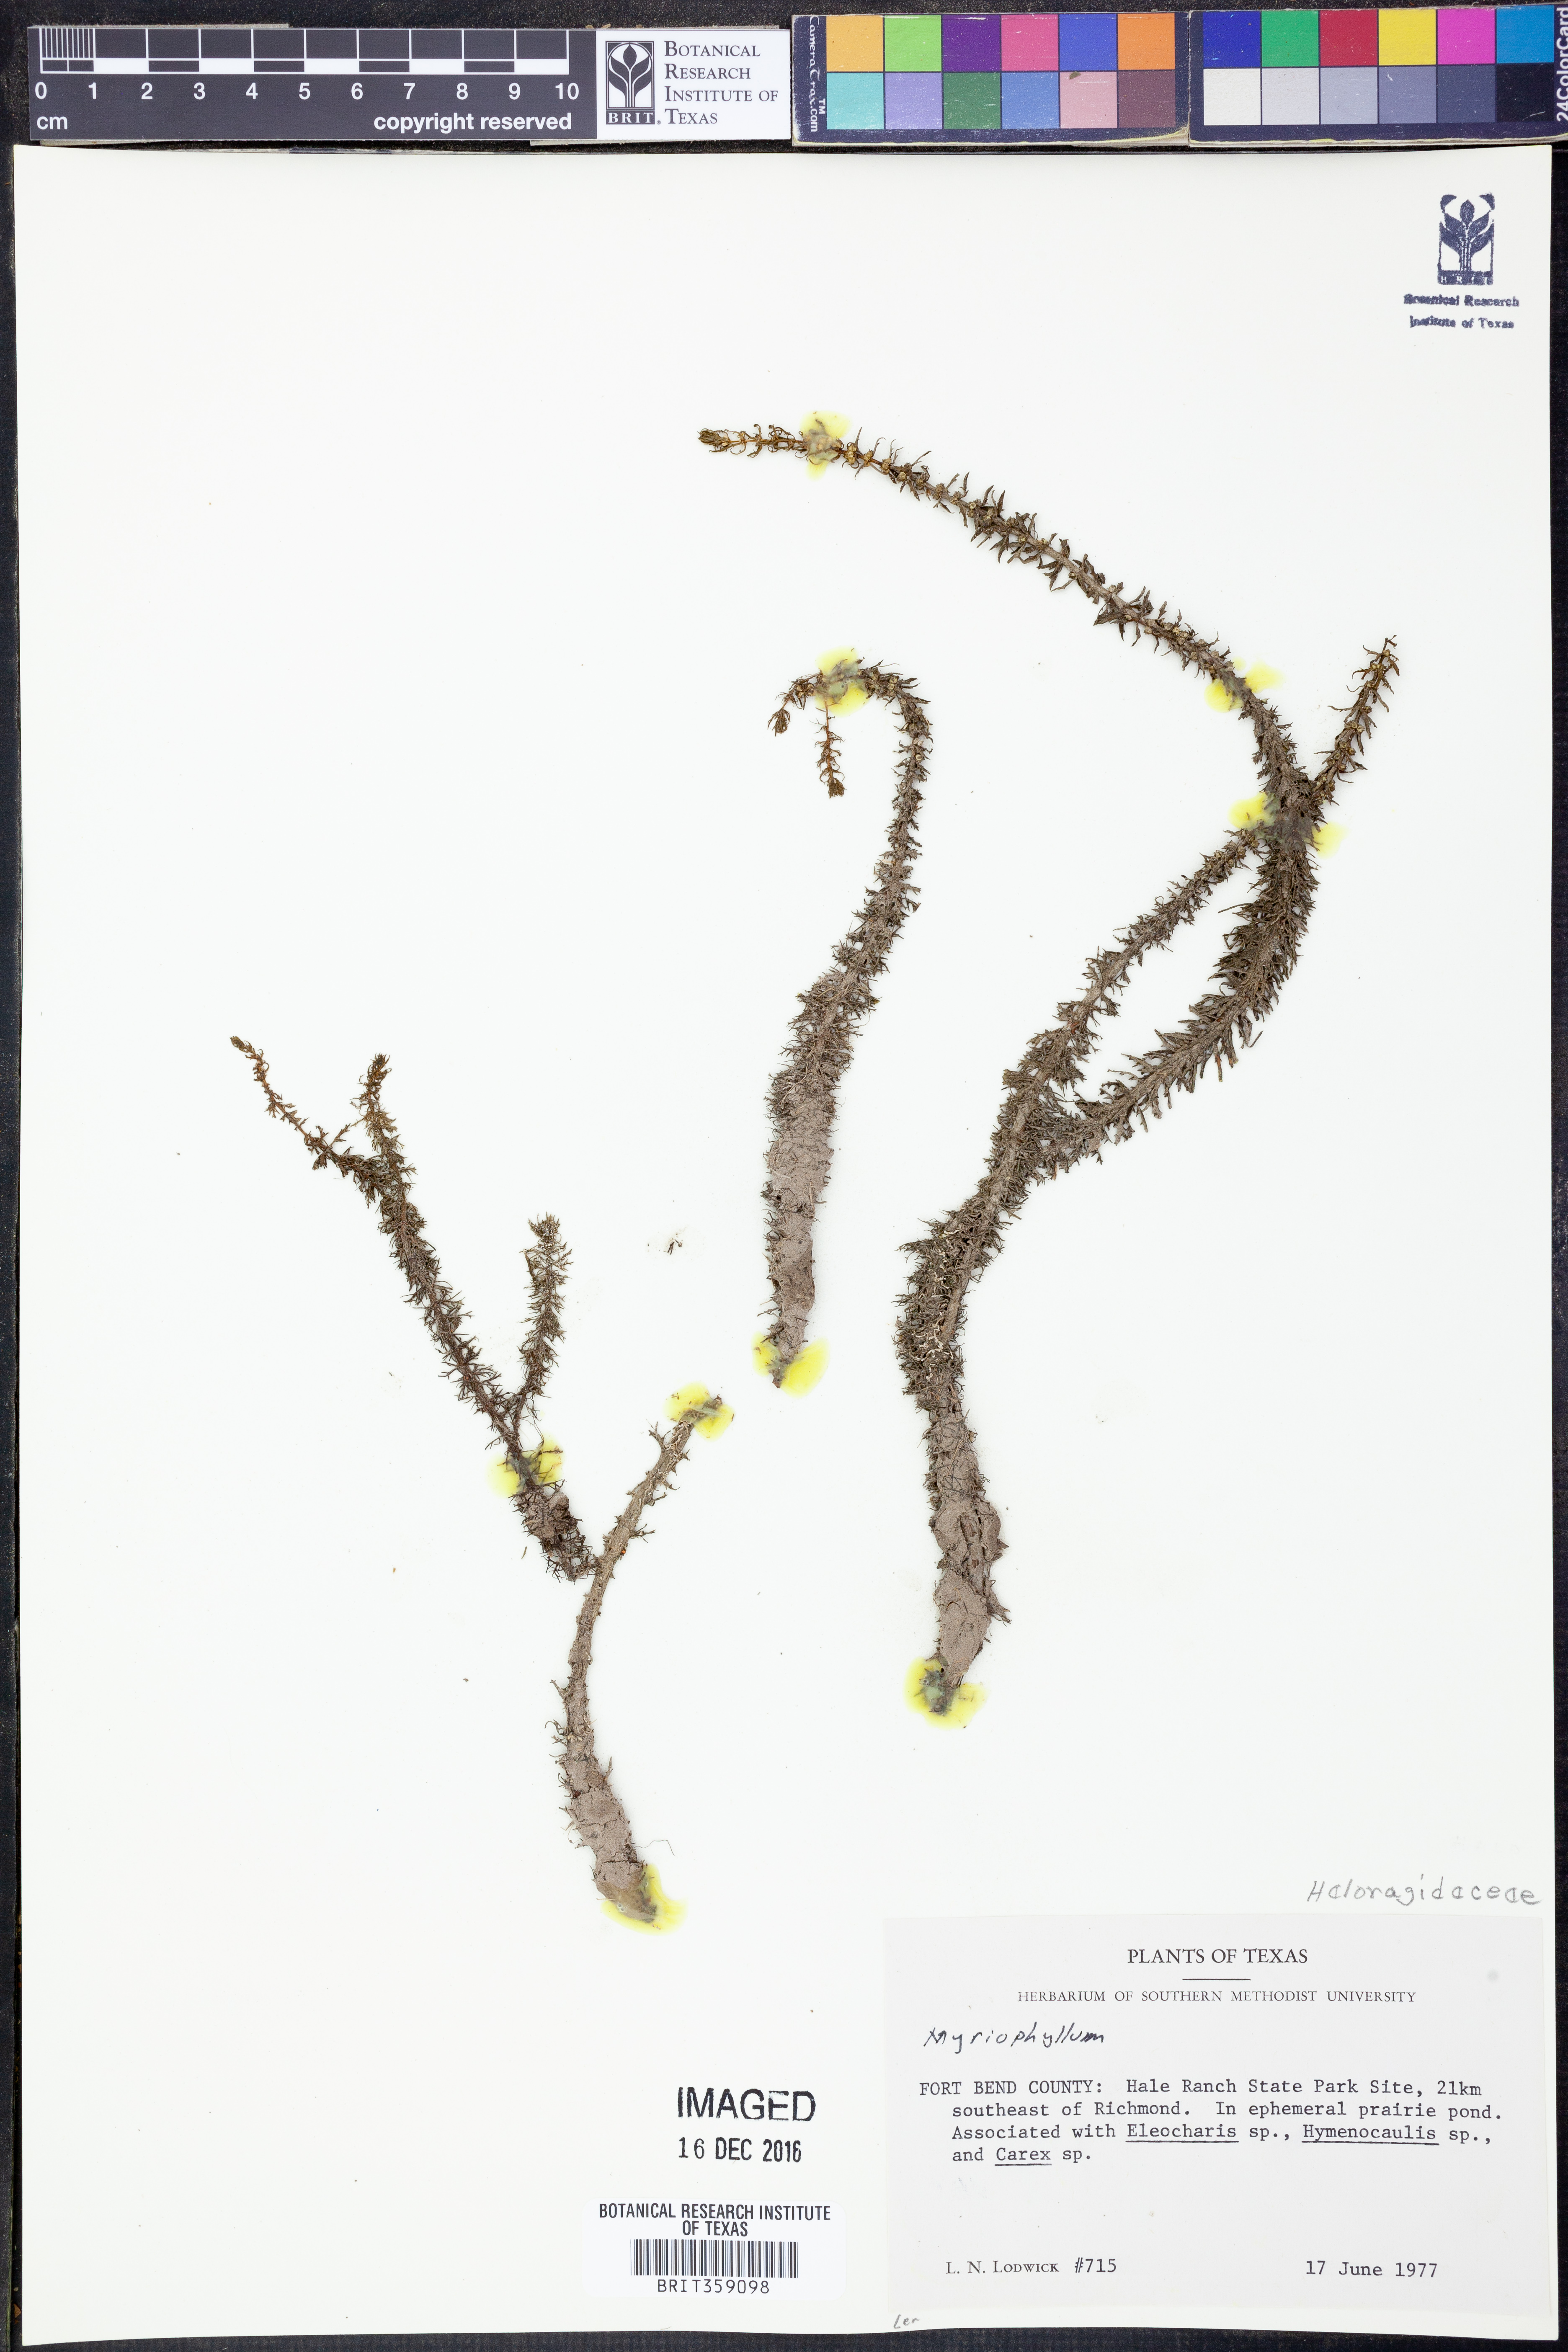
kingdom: Plantae
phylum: Tracheophyta
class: Magnoliopsida
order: Saxifragales
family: Haloragaceae
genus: Myriophyllum
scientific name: Myriophyllum
